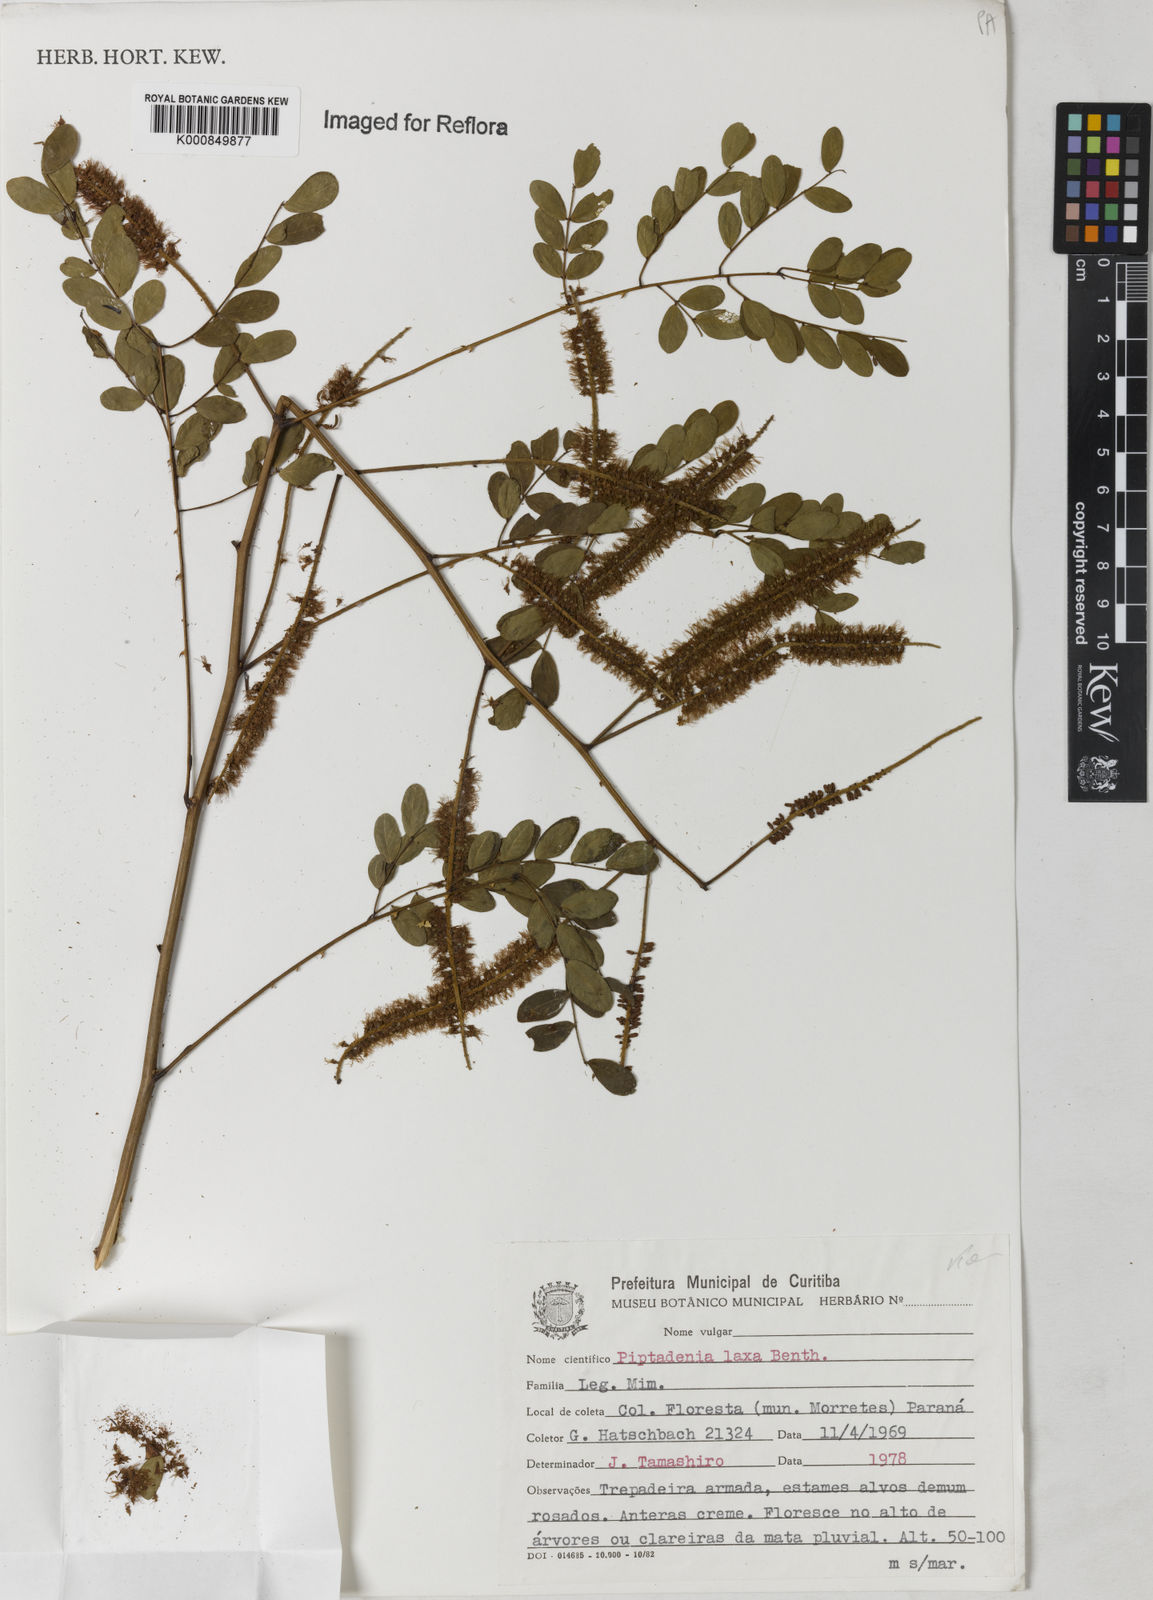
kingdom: Plantae
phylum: Tracheophyta
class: Magnoliopsida
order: Fabales
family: Fabaceae
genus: Piptadenia
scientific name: Piptadenia adiantoides
